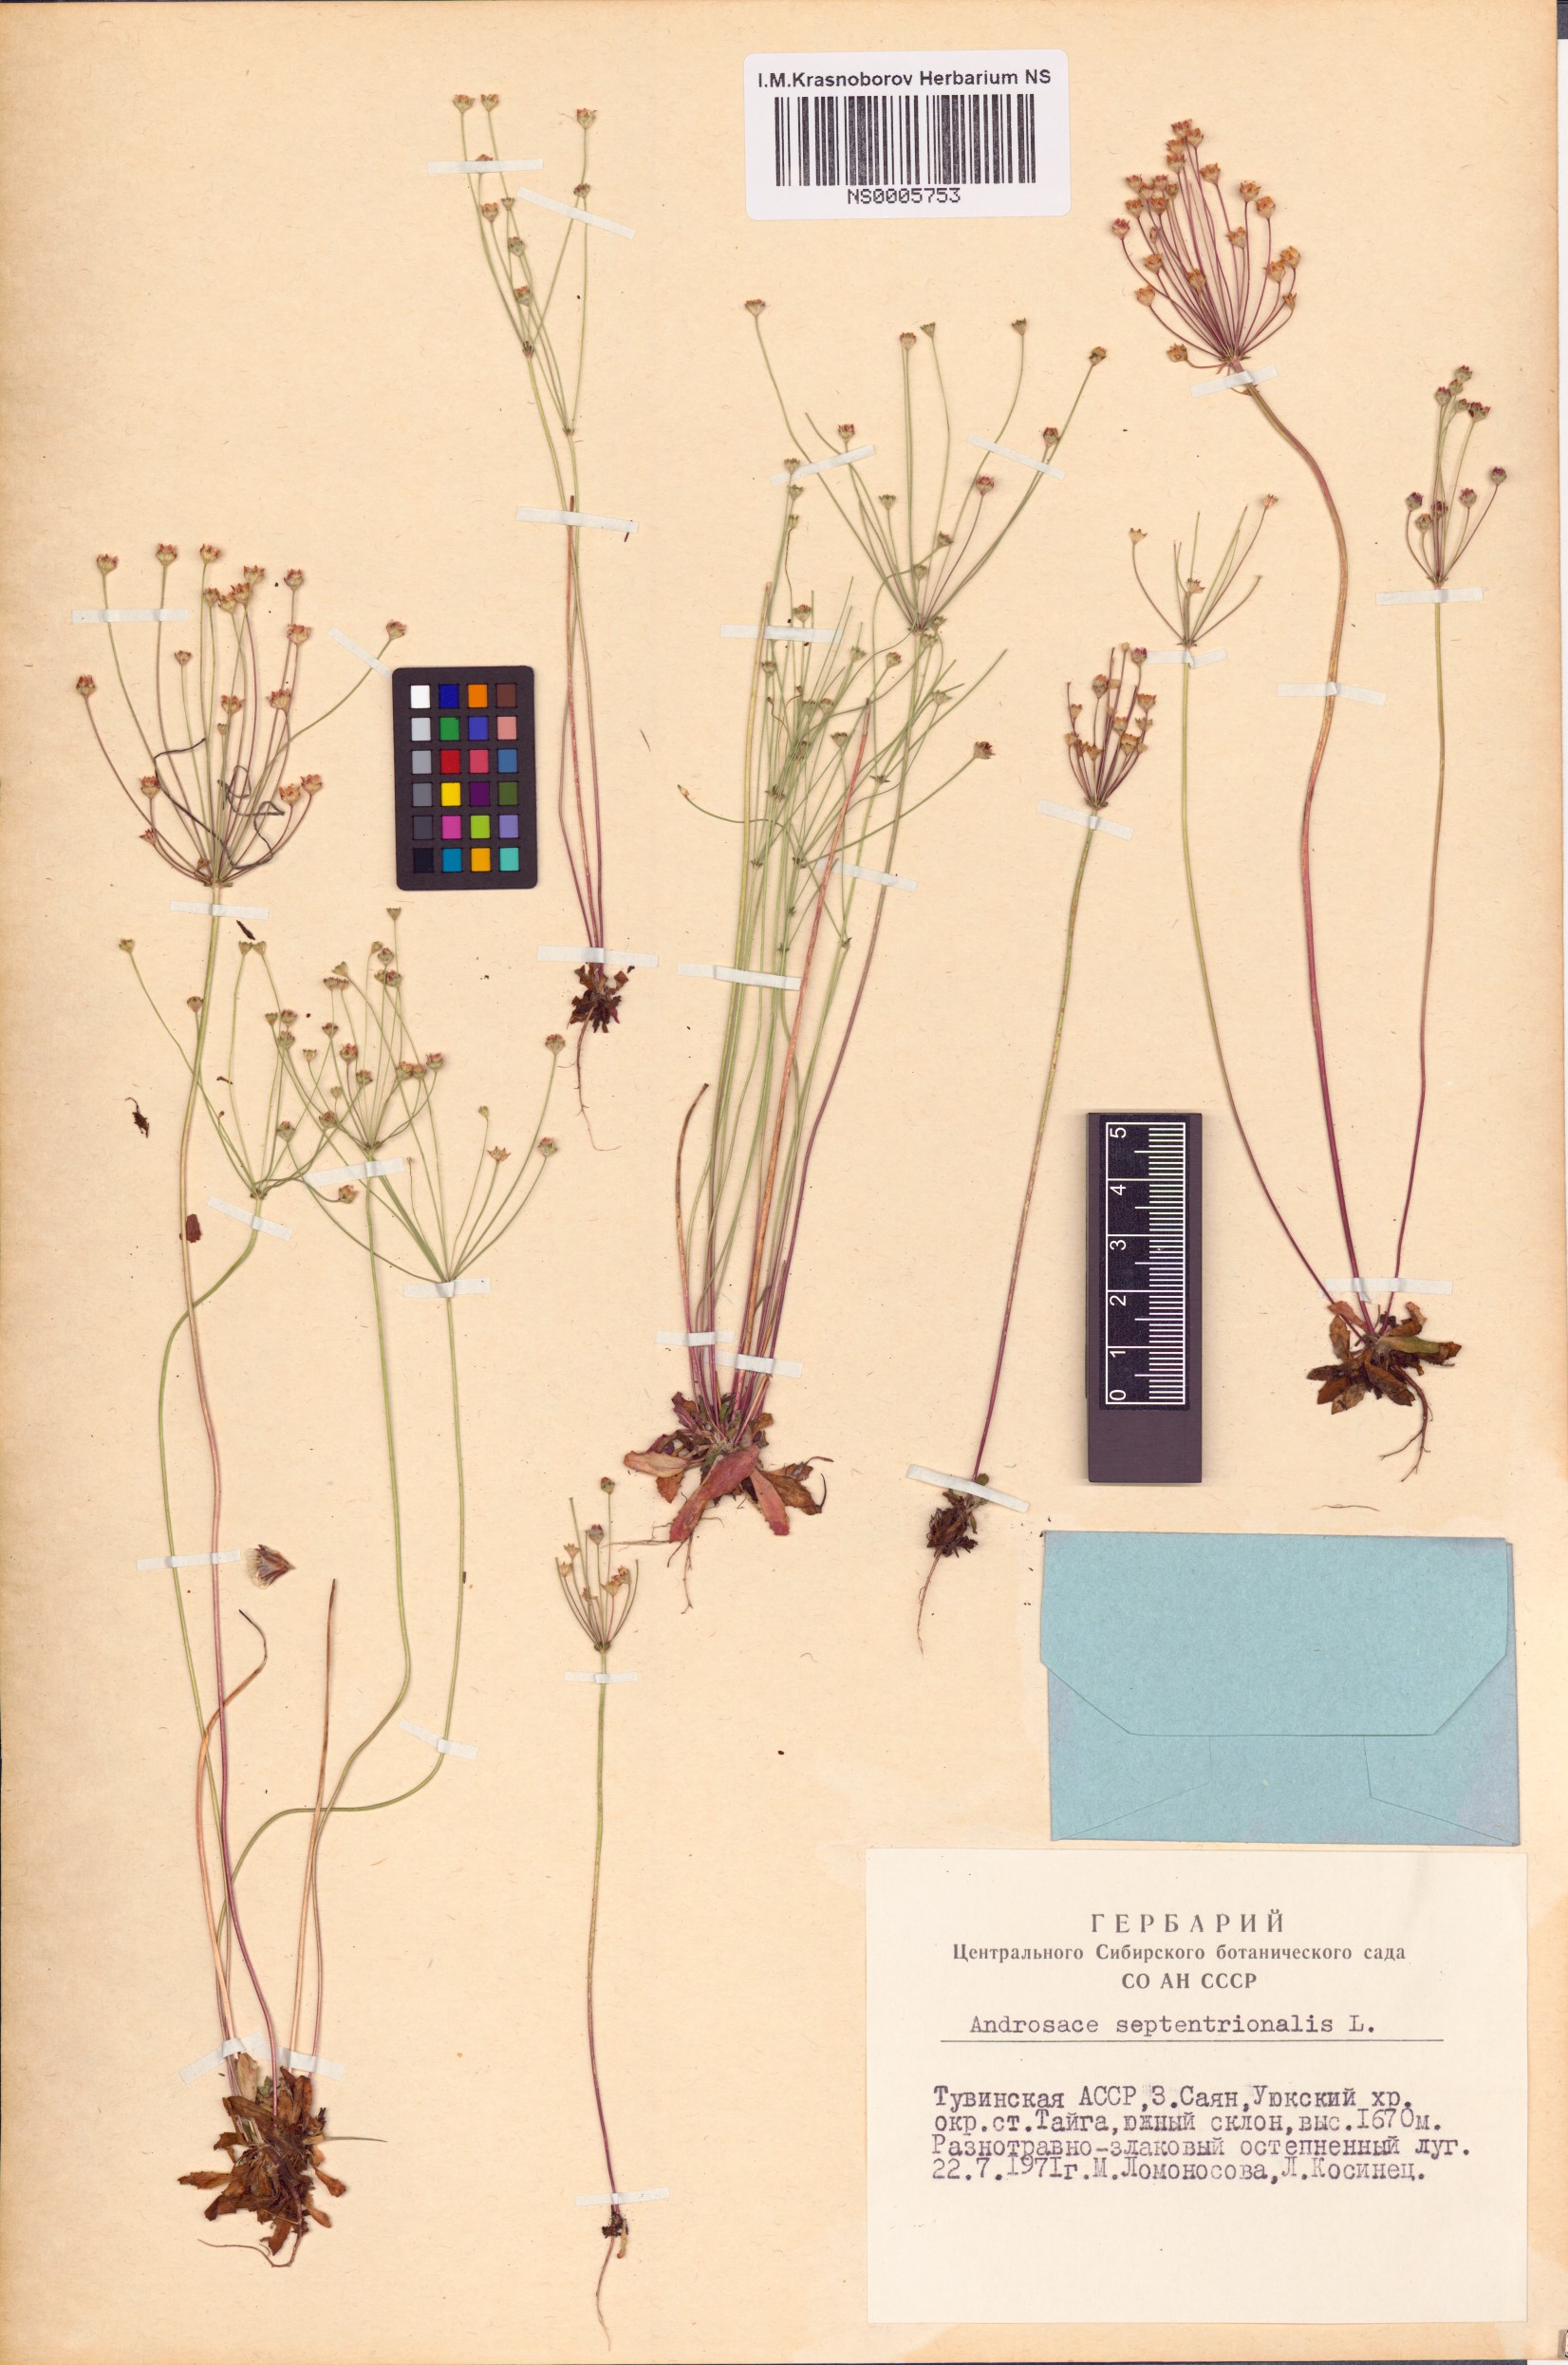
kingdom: Plantae
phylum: Tracheophyta
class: Magnoliopsida
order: Ericales
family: Primulaceae
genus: Androsace
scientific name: Androsace septentrionalis
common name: Hairy northern fairy-candelabra
